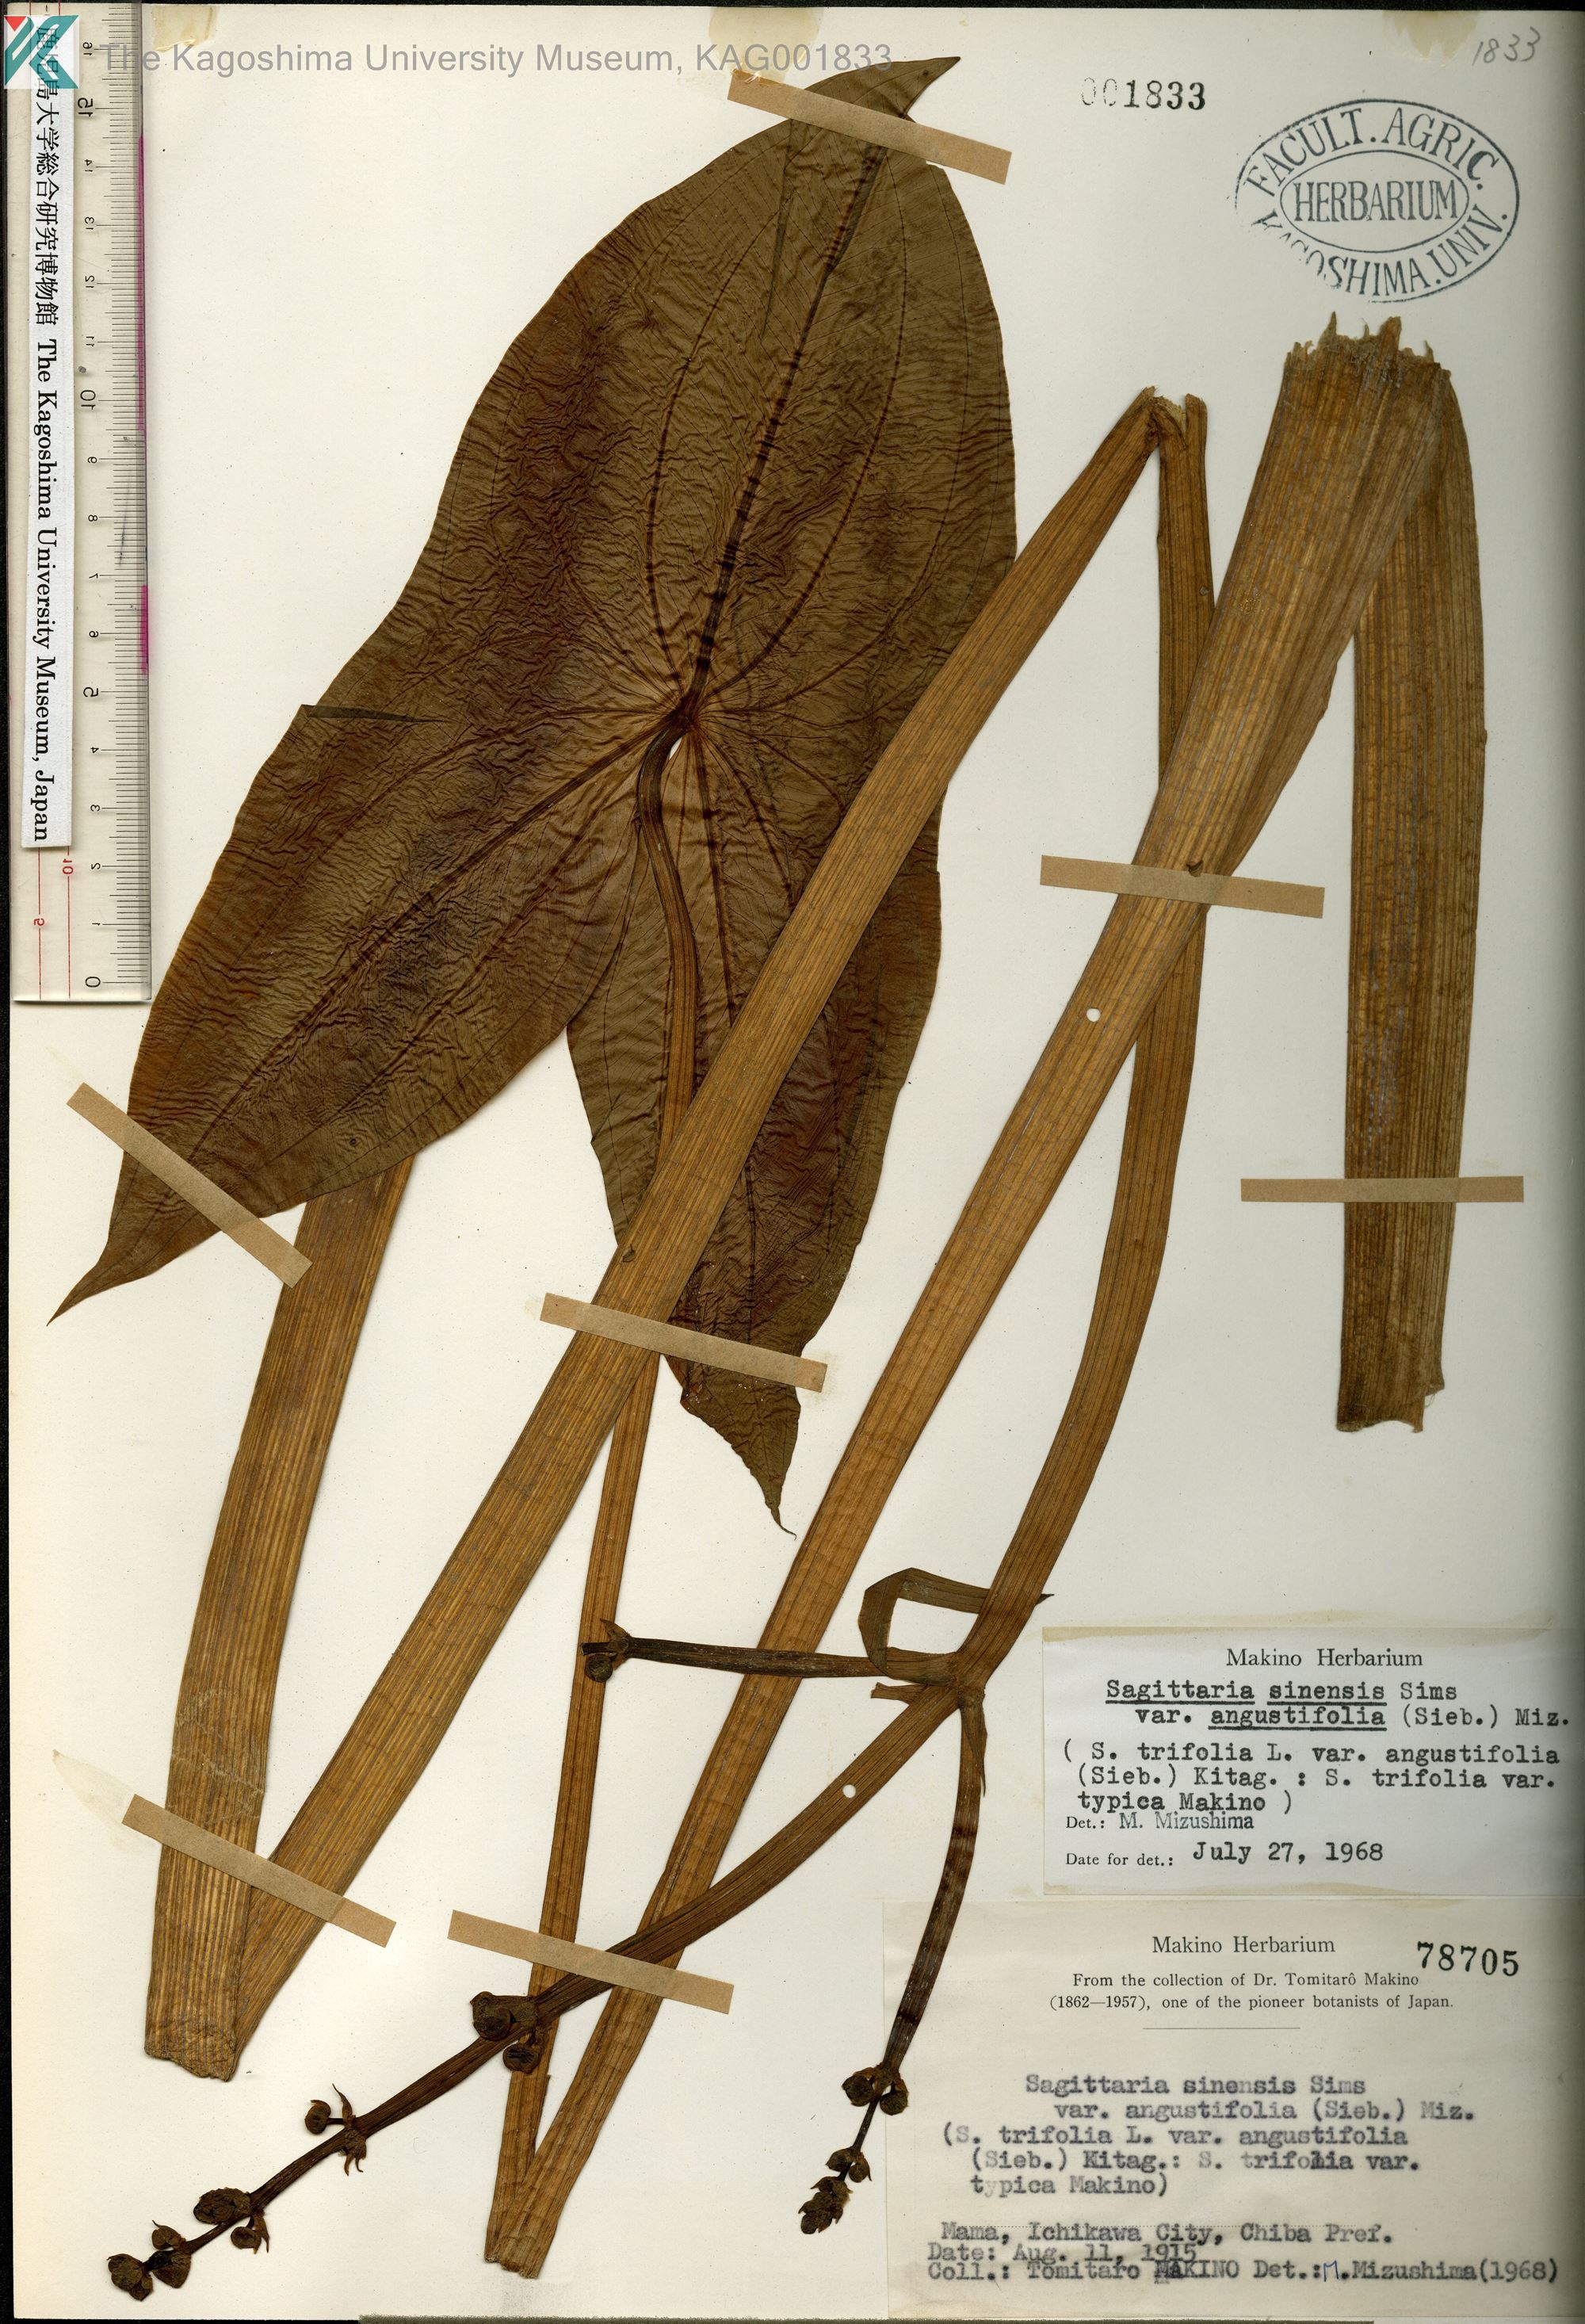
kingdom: Plantae
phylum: Tracheophyta
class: Liliopsida
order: Alismatales
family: Alismataceae
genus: Sagittaria
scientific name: Sagittaria trifolia
